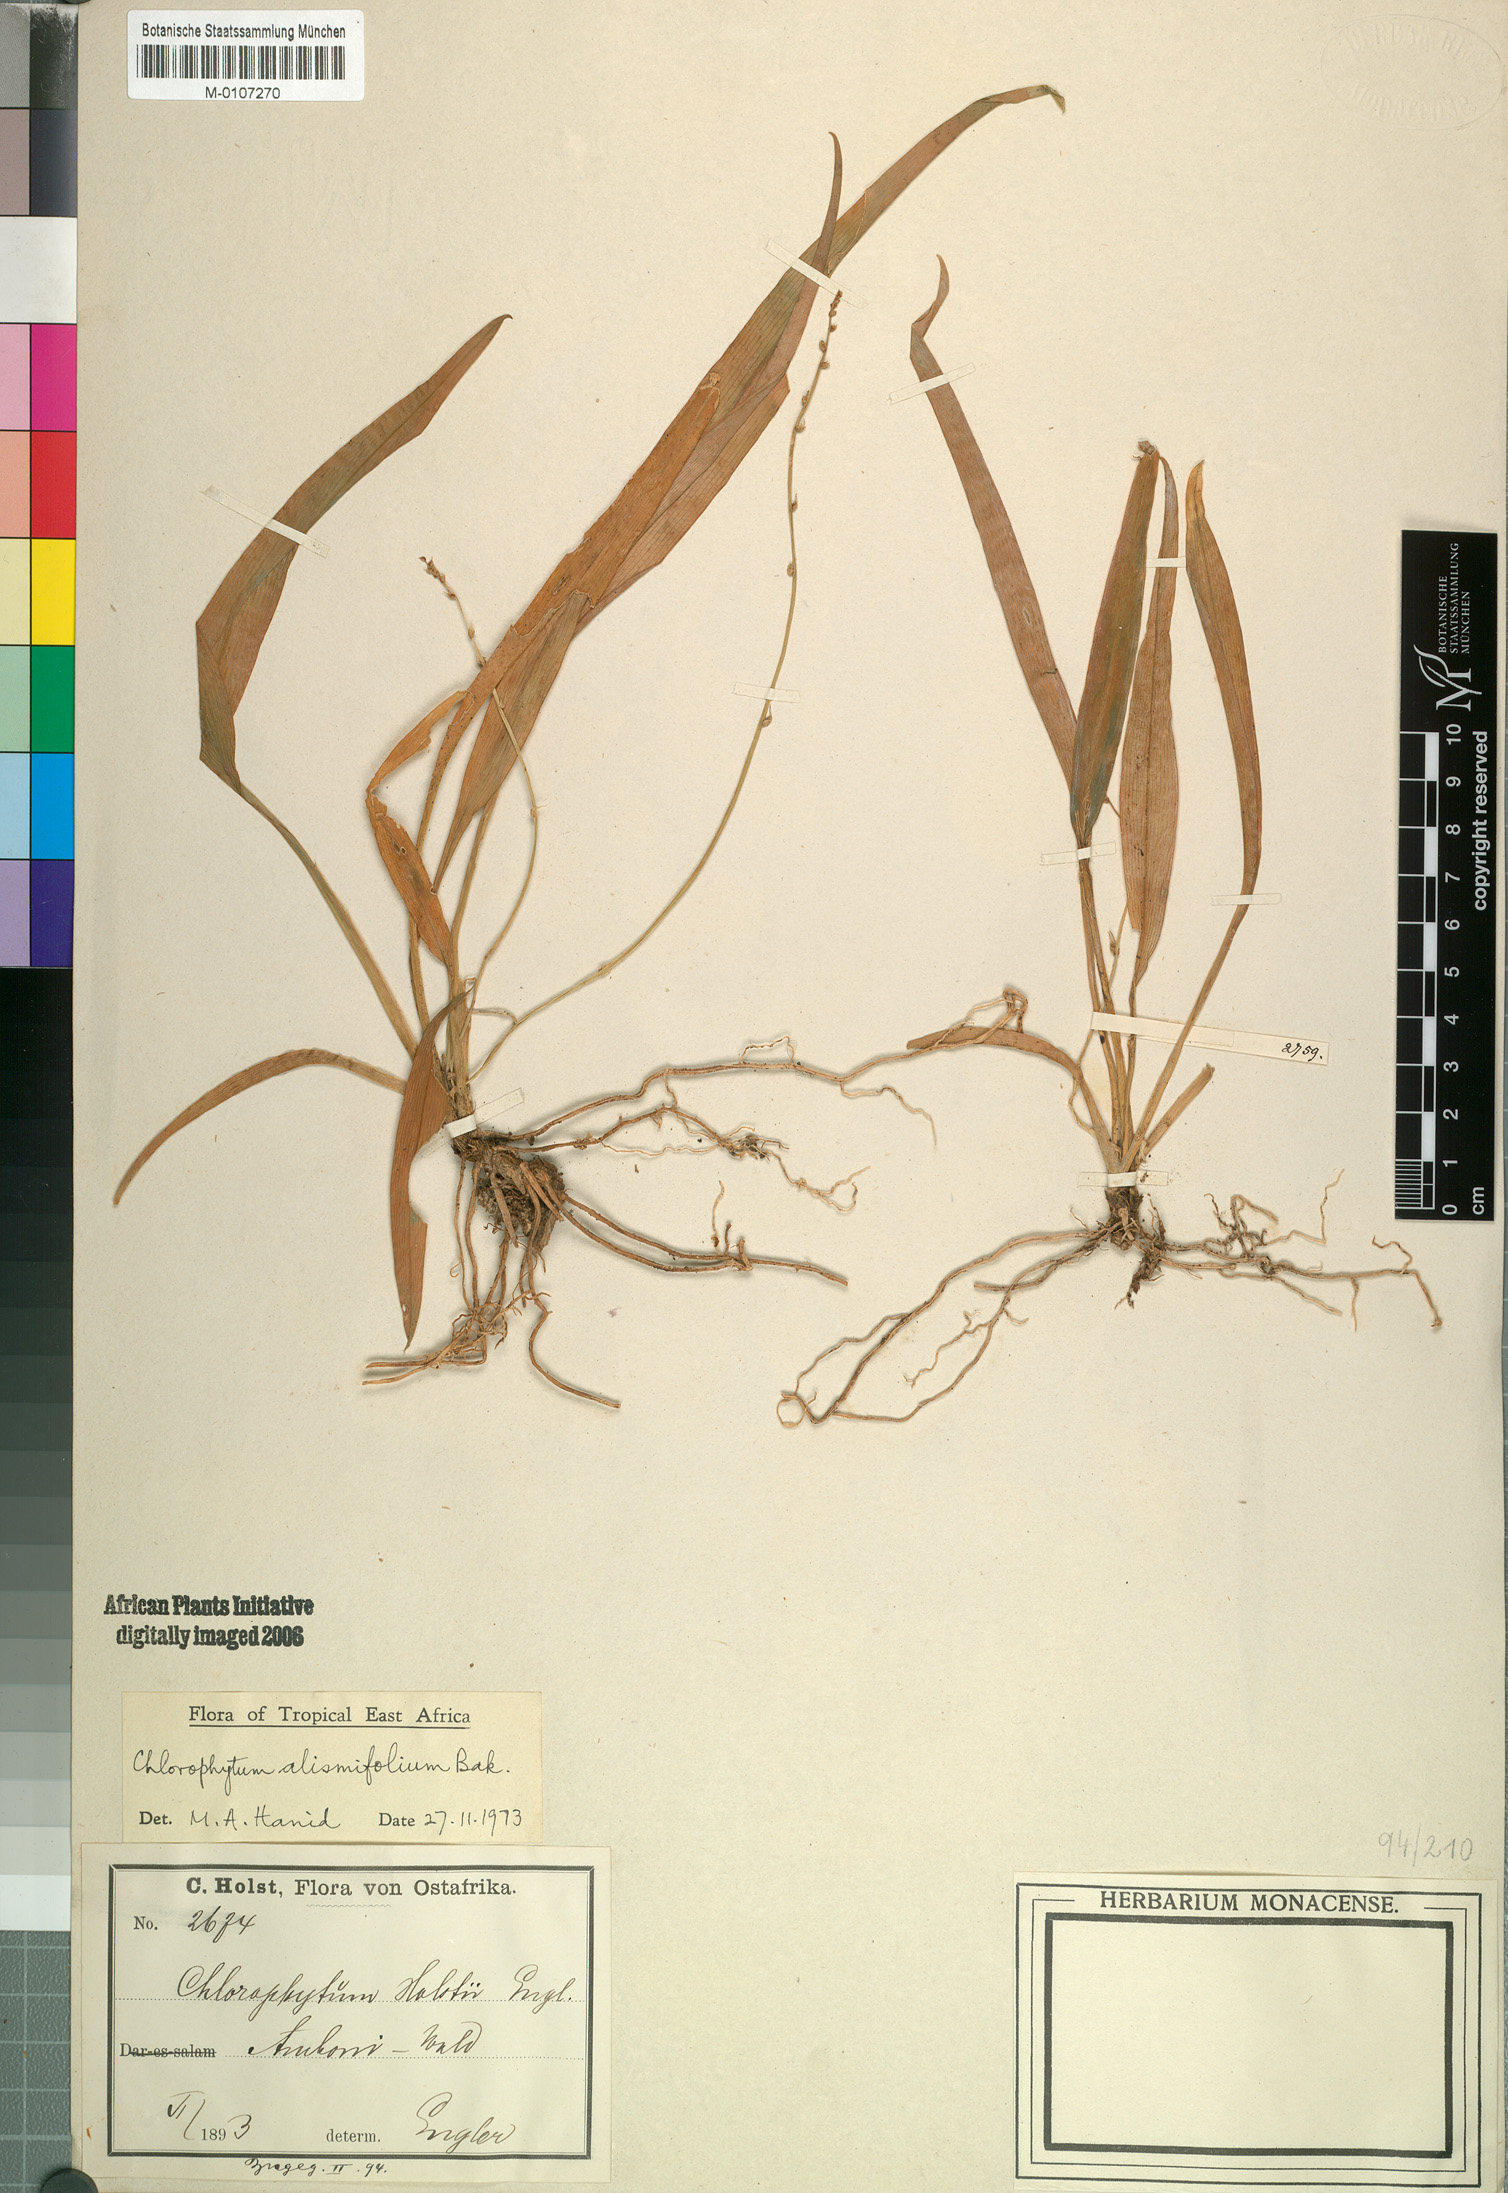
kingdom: Plantae
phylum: Tracheophyta
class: Liliopsida
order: Asparagales
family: Asparagaceae
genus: Chlorophytum
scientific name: Chlorophytum alismifolium
